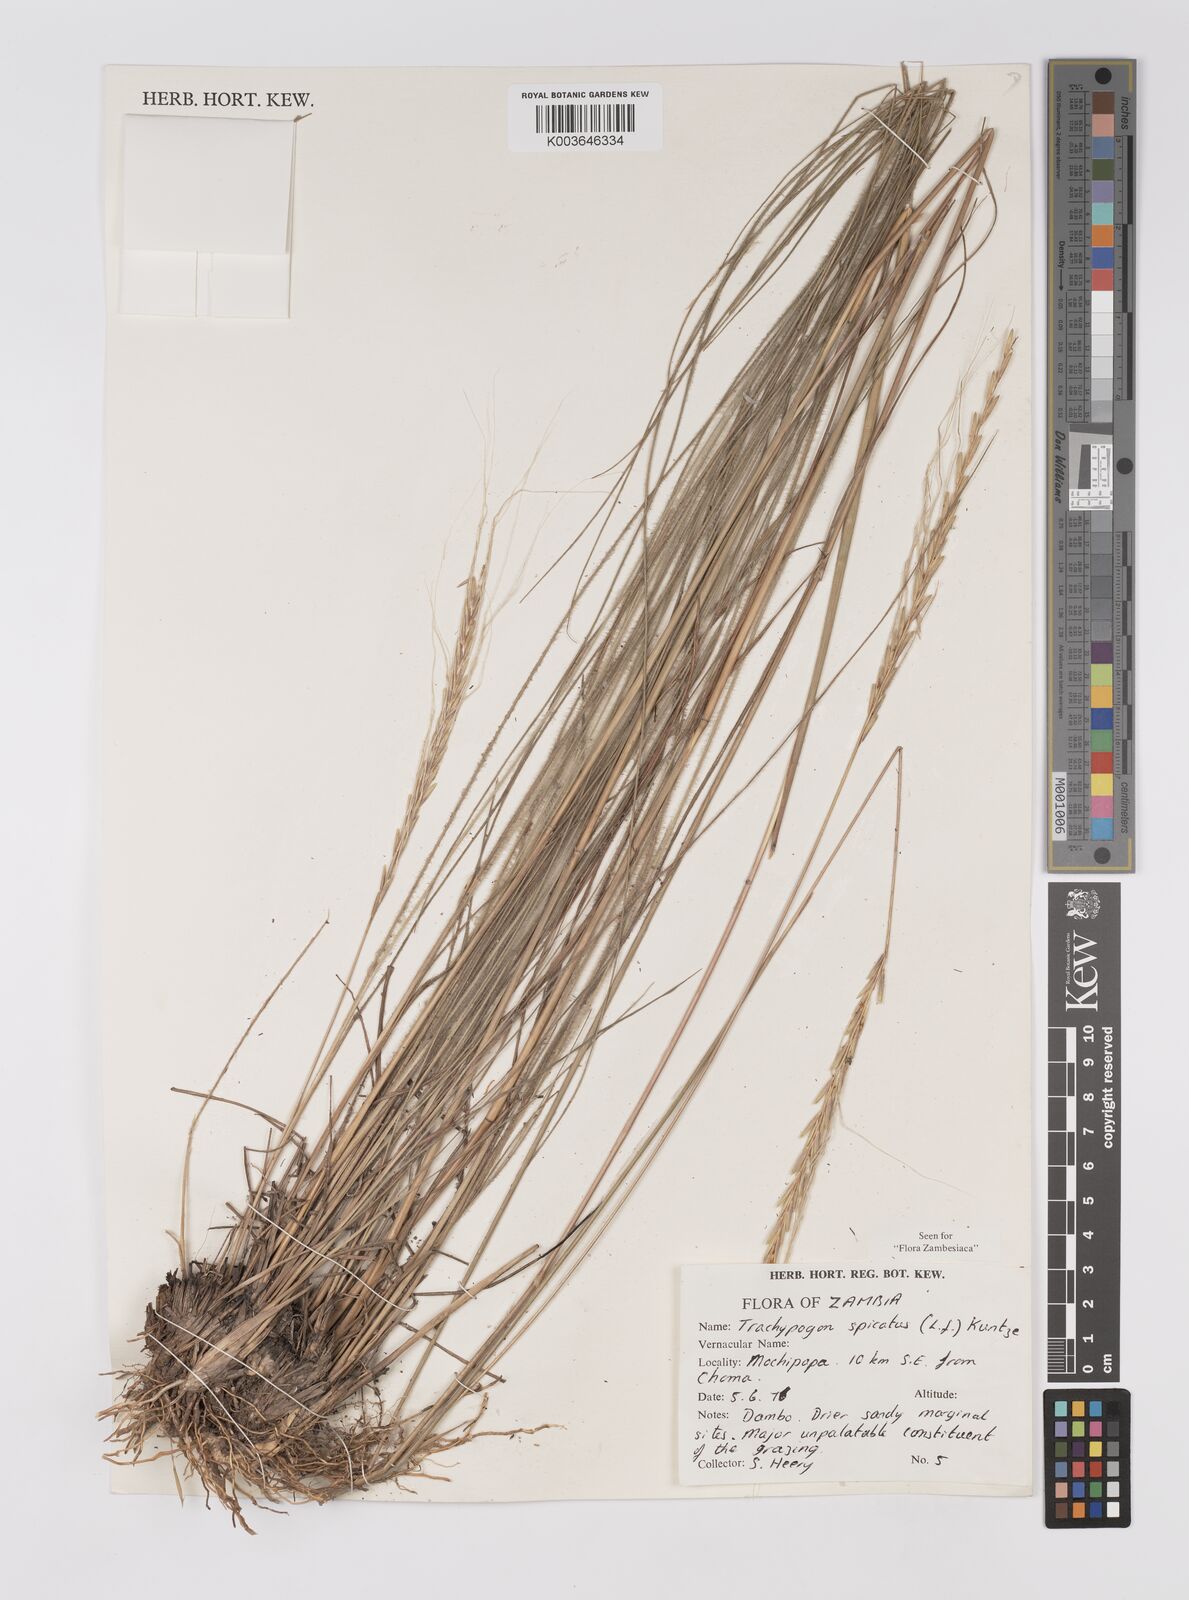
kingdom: Plantae
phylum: Tracheophyta
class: Liliopsida
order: Poales
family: Poaceae
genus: Trachypogon
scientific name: Trachypogon spicatus
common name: Crinkle-awn
